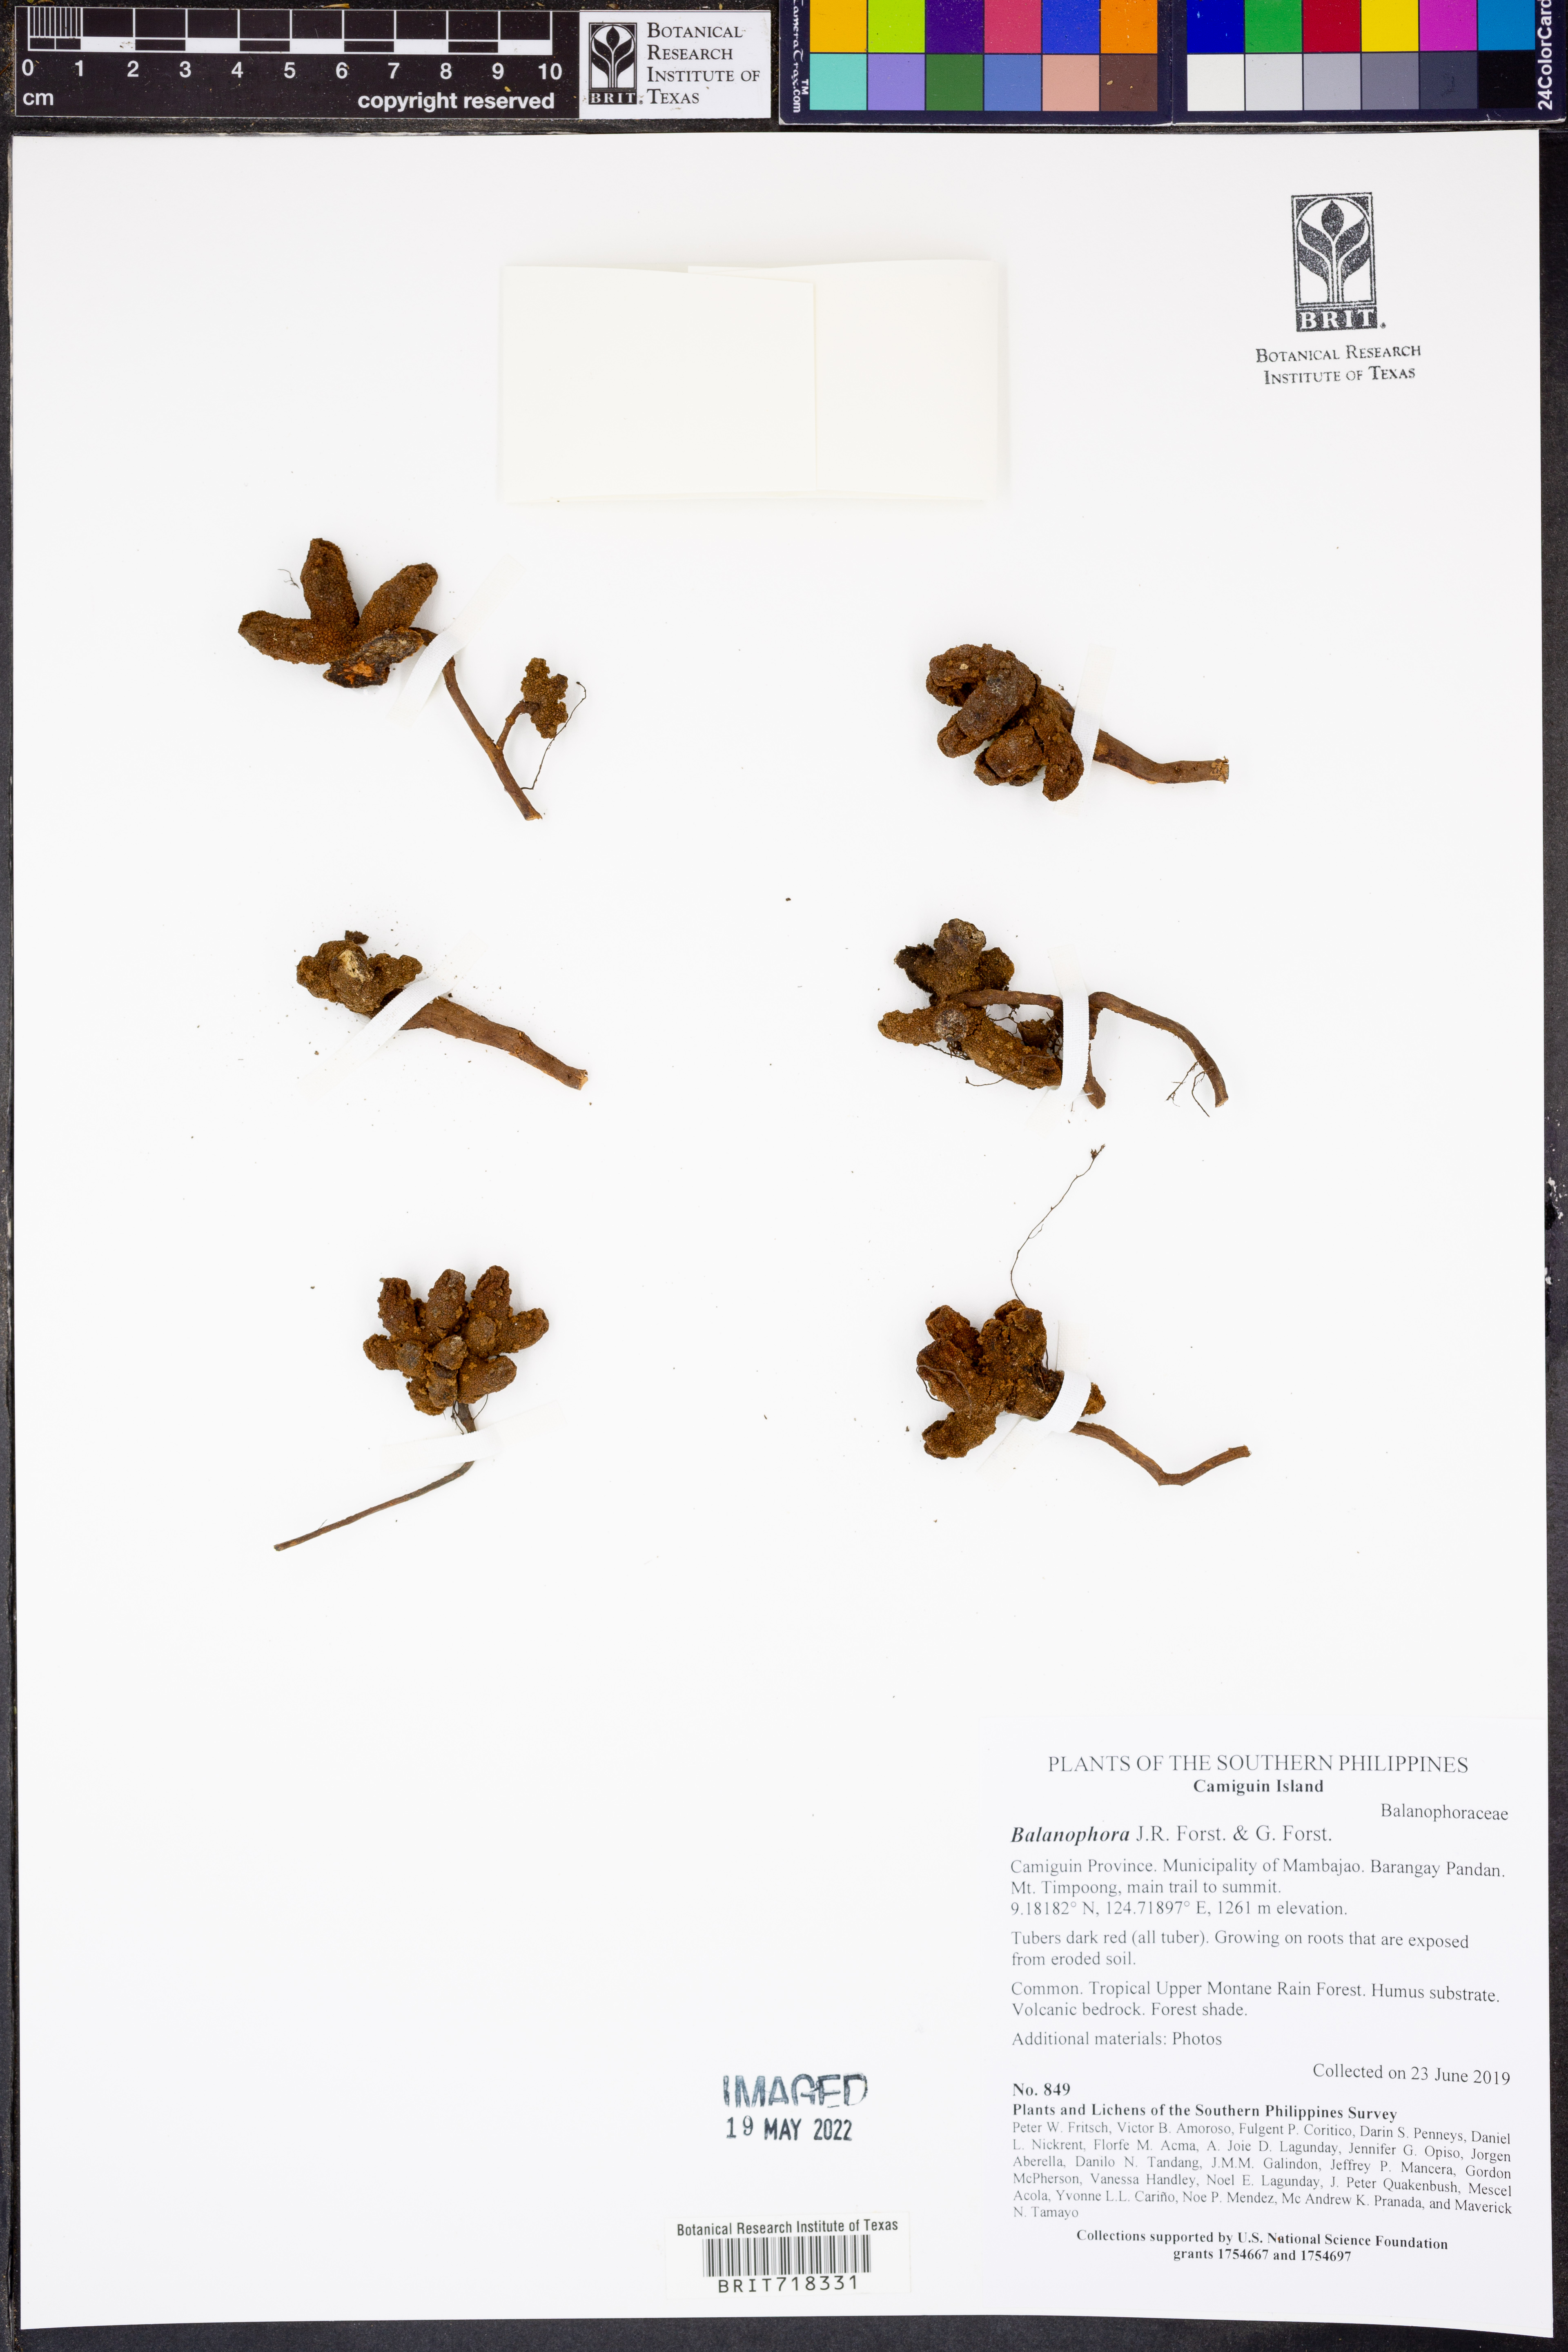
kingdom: Plantae
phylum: Tracheophyta
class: Magnoliopsida
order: Santalales
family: Balanophoraceae
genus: Balanophora
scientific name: Balanophora
